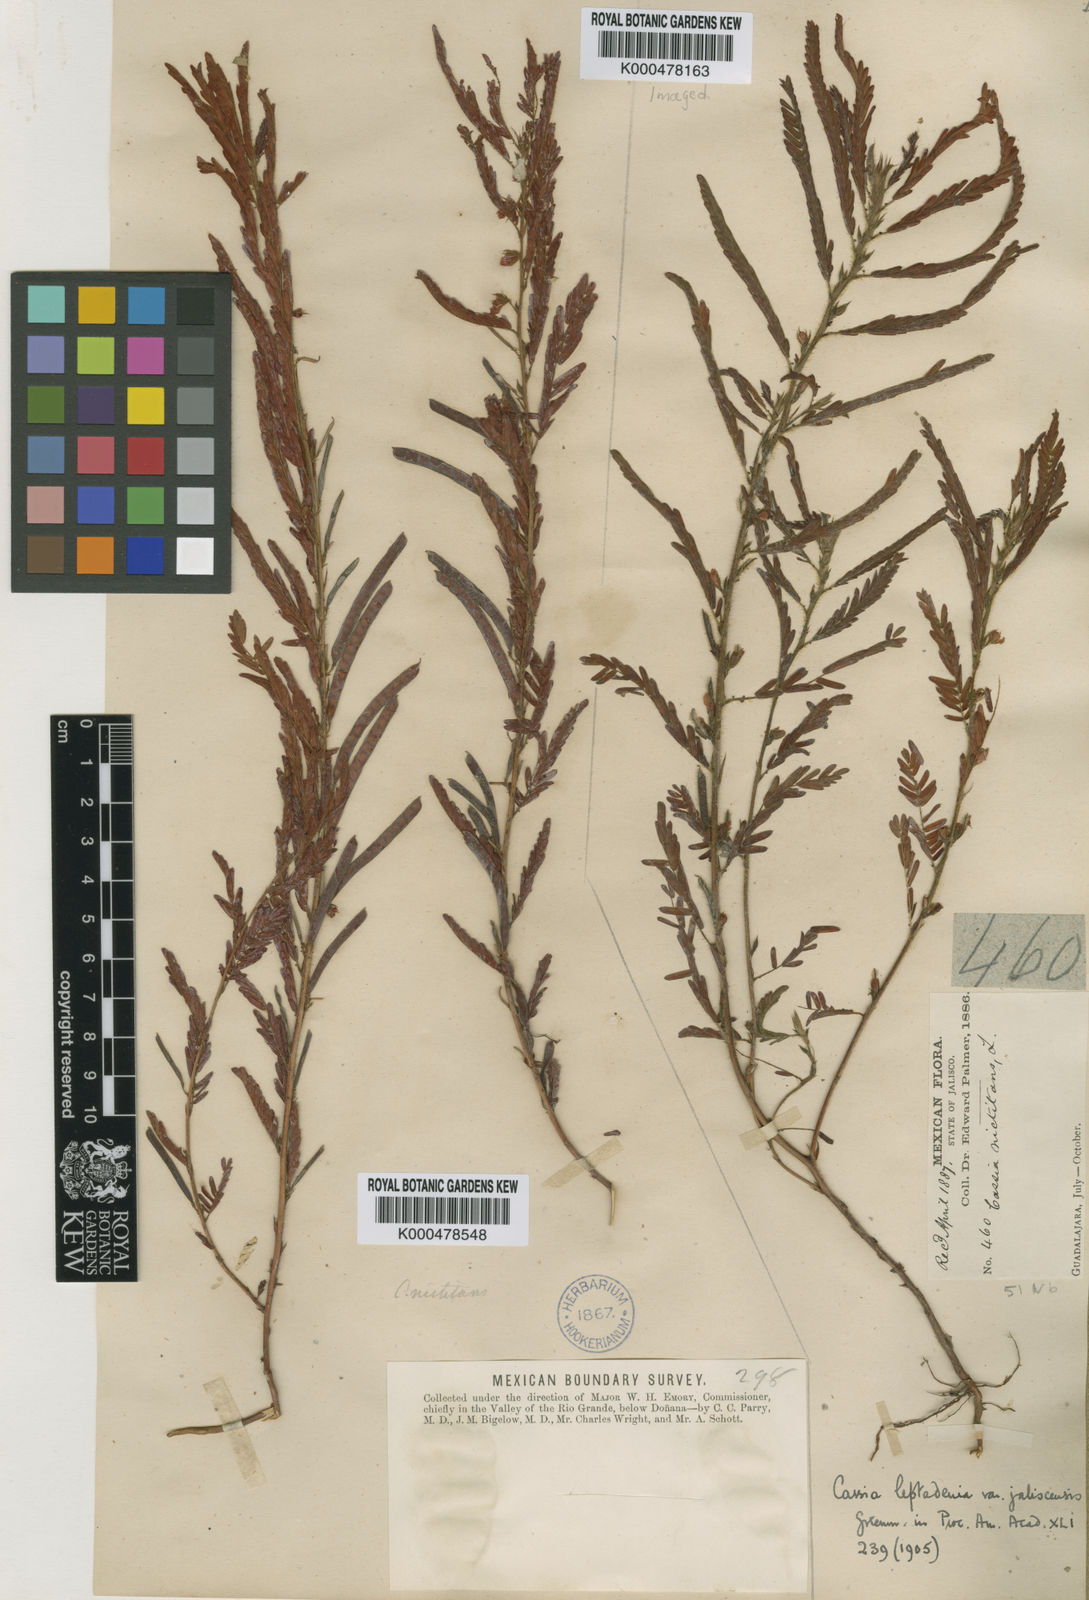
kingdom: Plantae
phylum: Tracheophyta
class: Magnoliopsida
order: Fabales
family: Fabaceae
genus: Chamaecrista
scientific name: Chamaecrista nictitans
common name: Sensitive cassia
